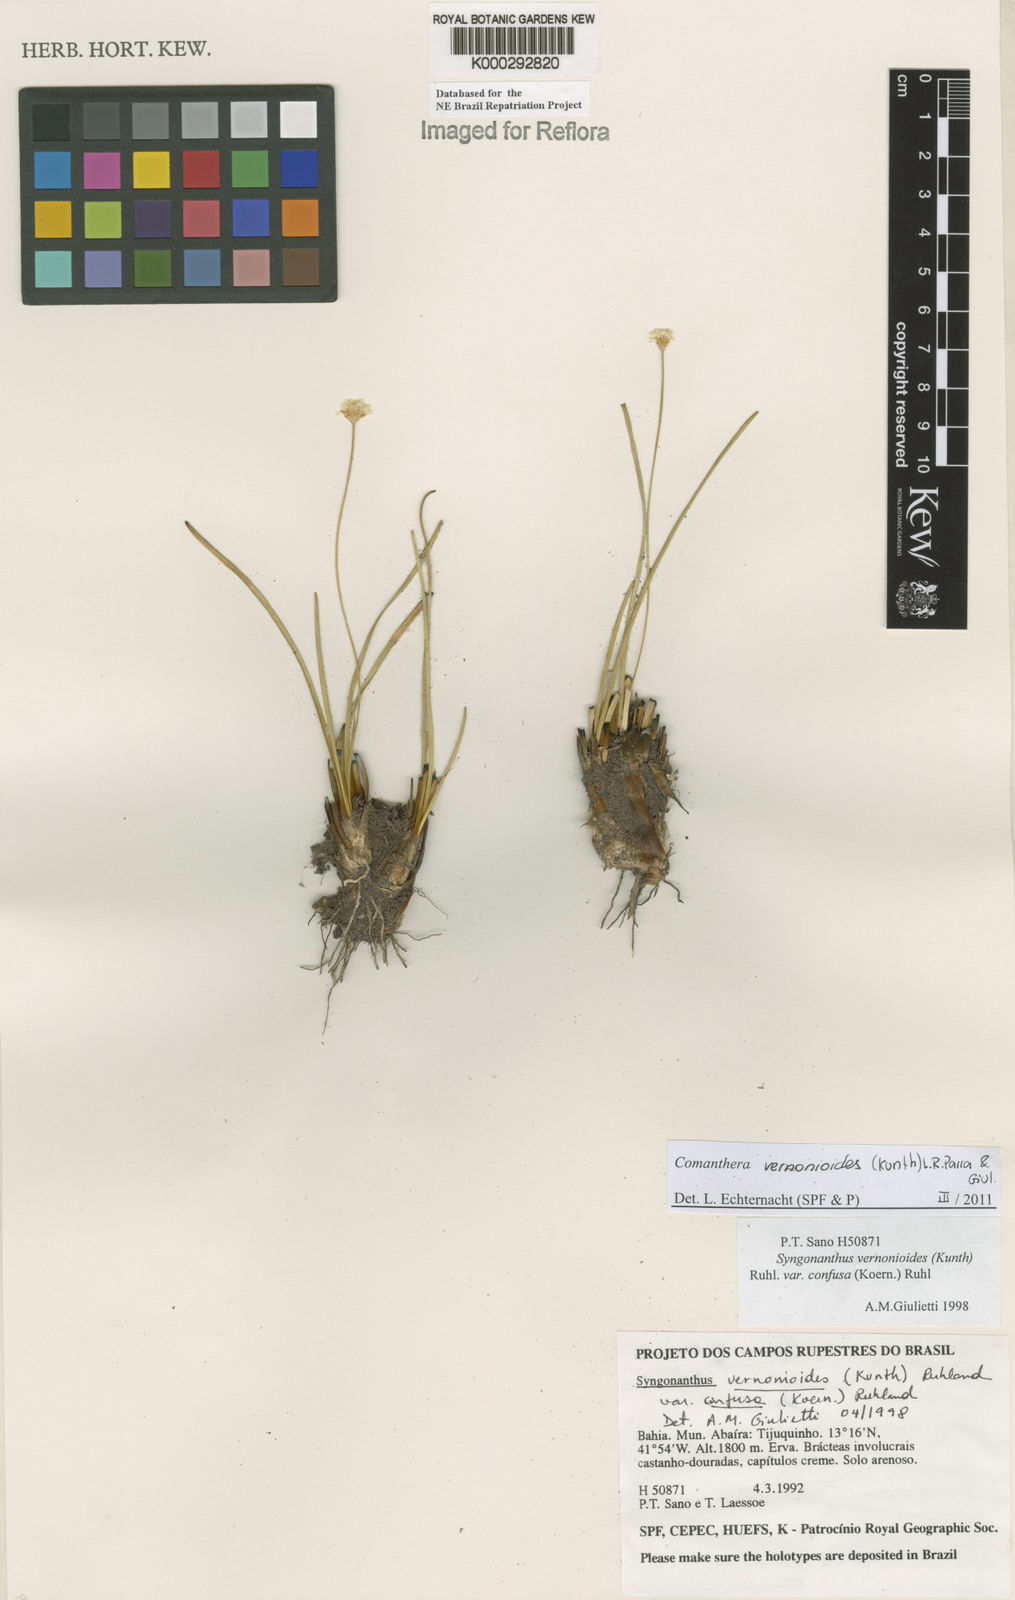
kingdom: Plantae
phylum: Tracheophyta
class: Liliopsida
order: Poales
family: Eriocaulaceae
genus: Comanthera
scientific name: Comanthera centauroides
